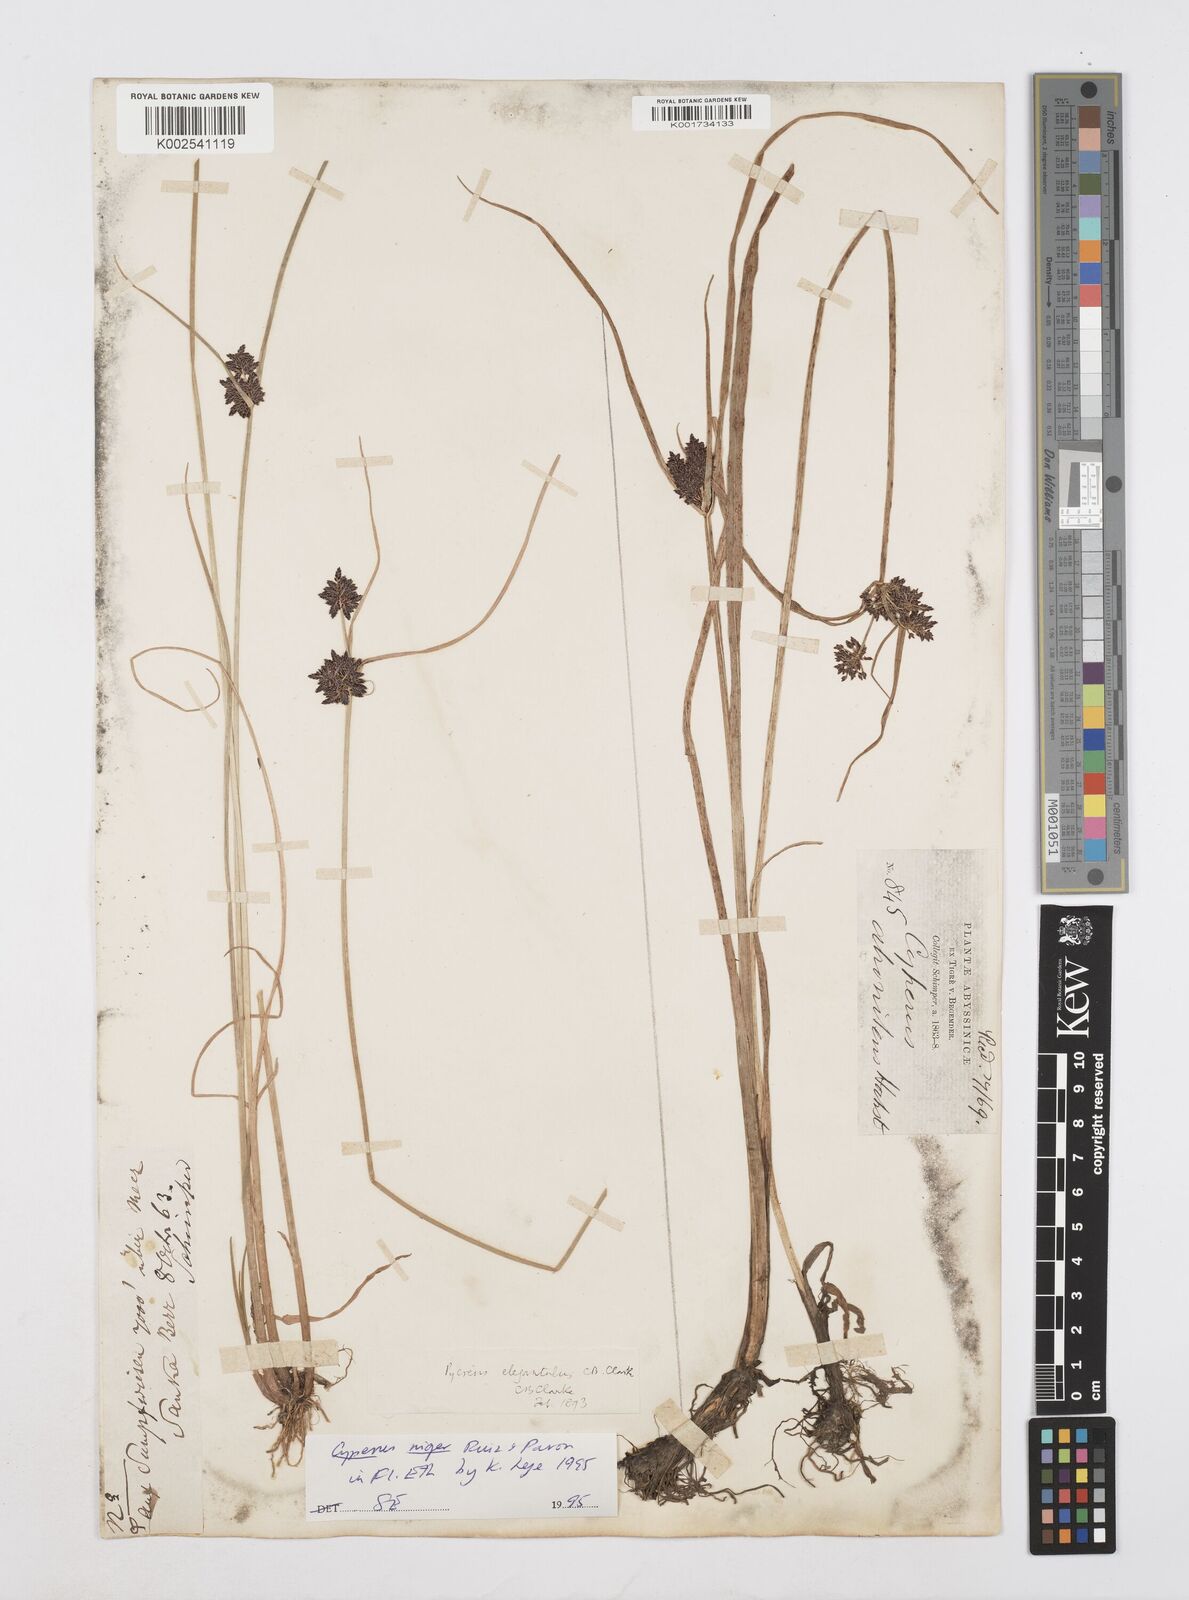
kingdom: Plantae
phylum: Tracheophyta
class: Liliopsida
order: Poales
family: Cyperaceae
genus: Cyperus
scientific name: Cyperus elegantulus
